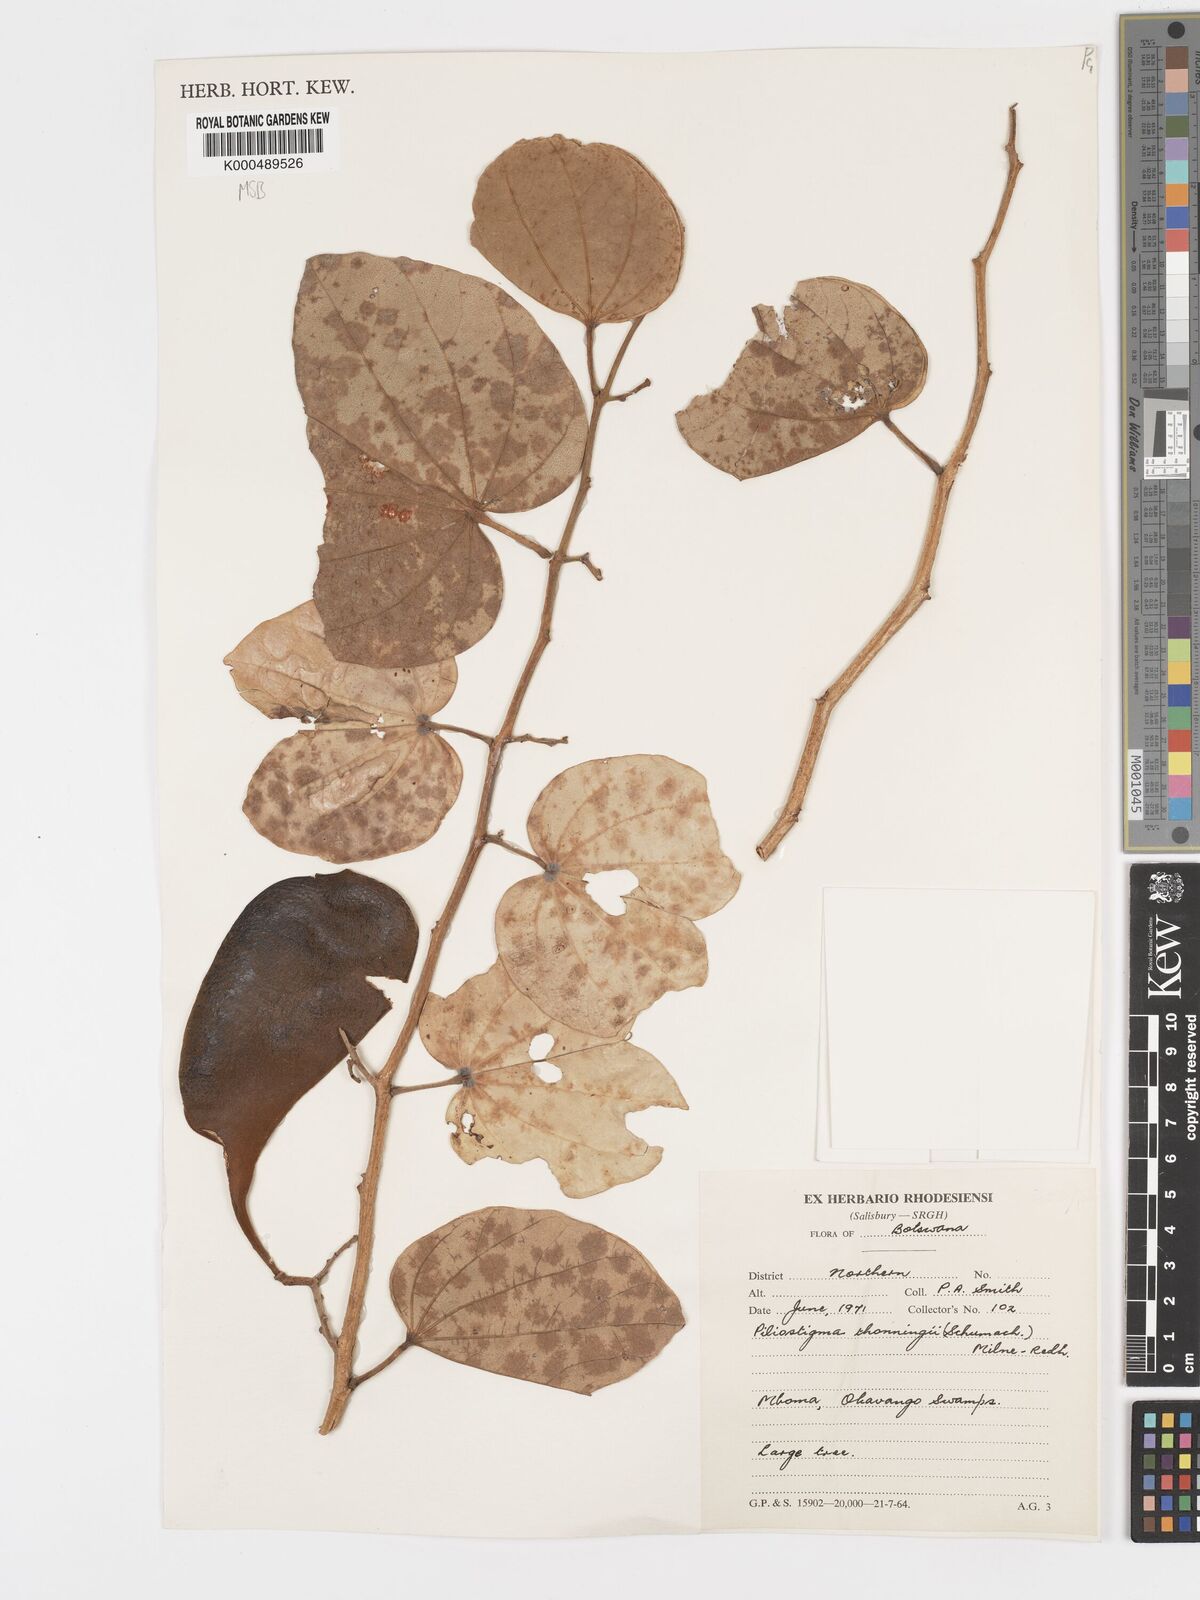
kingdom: Plantae
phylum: Tracheophyta
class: Magnoliopsida
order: Fabales
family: Fabaceae
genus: Piliostigma
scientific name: Piliostigma thonningii
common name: Kao
